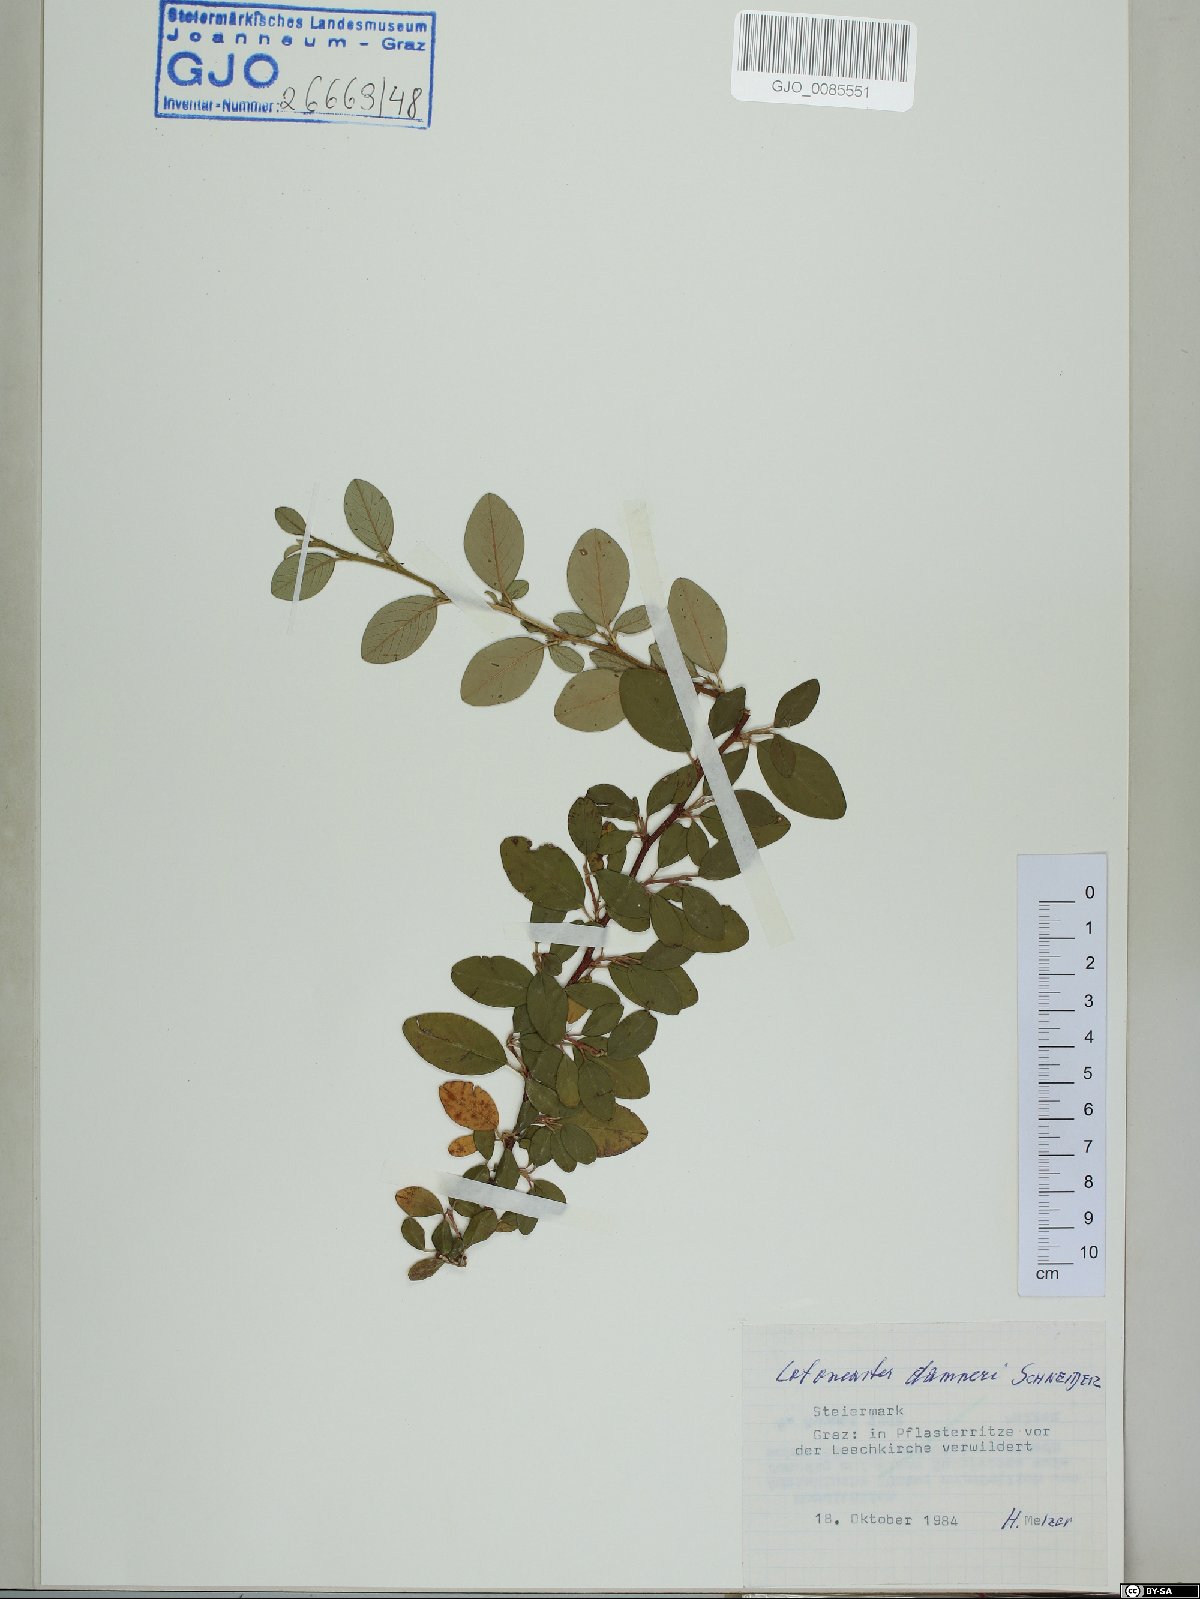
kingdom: Plantae
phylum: Tracheophyta
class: Magnoliopsida
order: Rosales
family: Rosaceae
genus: Cotoneaster
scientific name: Cotoneaster dammeri
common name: Bearberry cotoneaster
